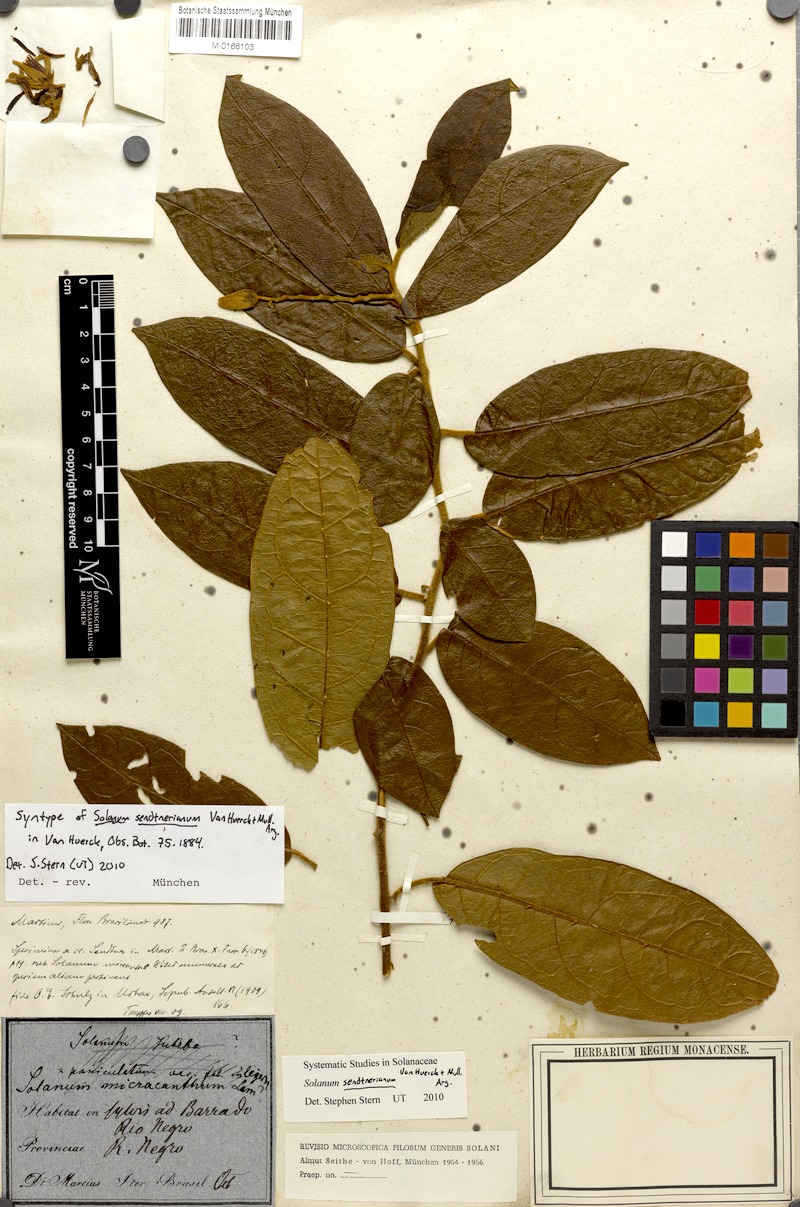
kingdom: Plantae
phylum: Tracheophyta
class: Magnoliopsida
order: Solanales
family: Solanaceae
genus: Solanum
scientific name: Solanum sendtnerianum
